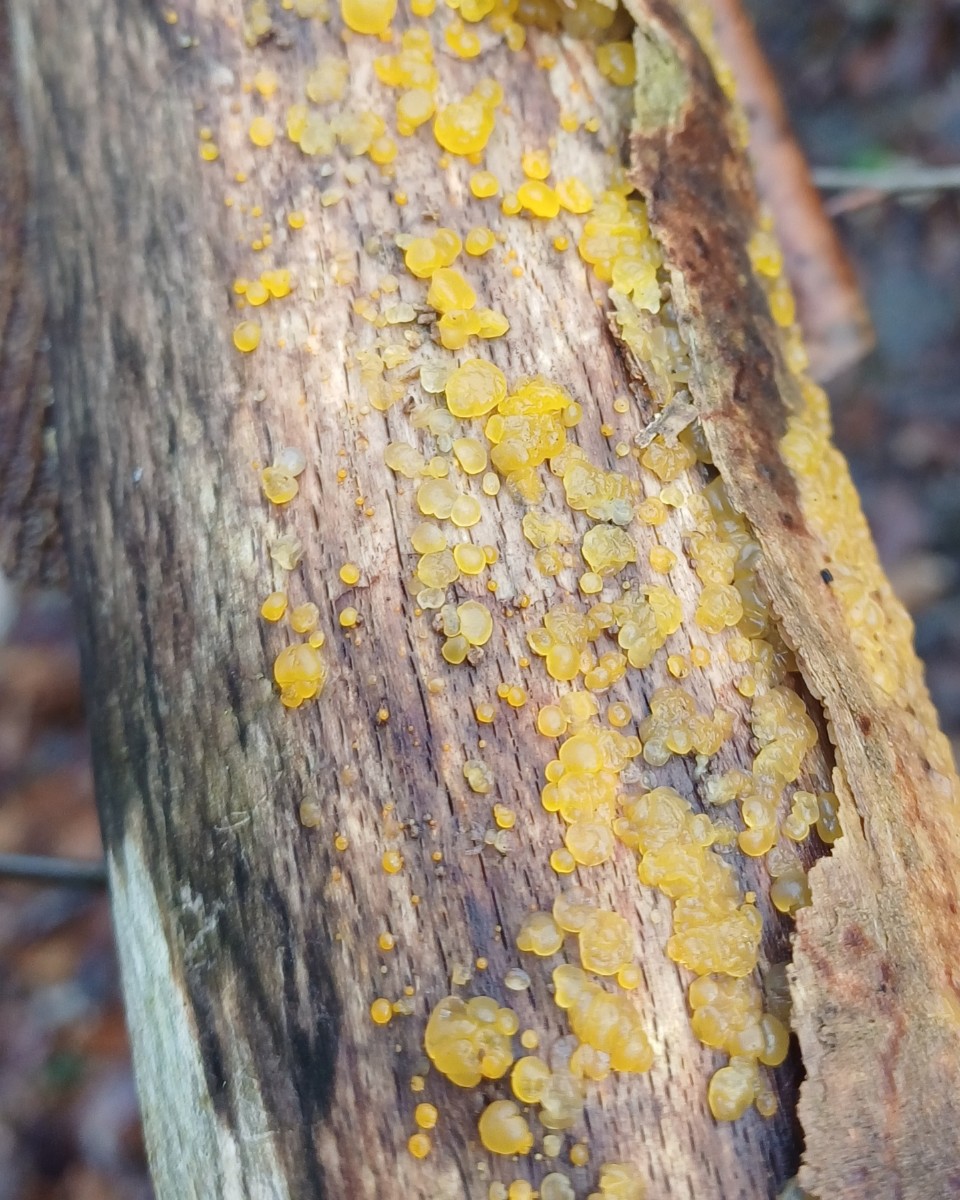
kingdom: Fungi
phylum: Basidiomycota
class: Dacrymycetes
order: Dacrymycetales
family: Dacrymycetaceae
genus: Dacrymyces
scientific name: Dacrymyces
